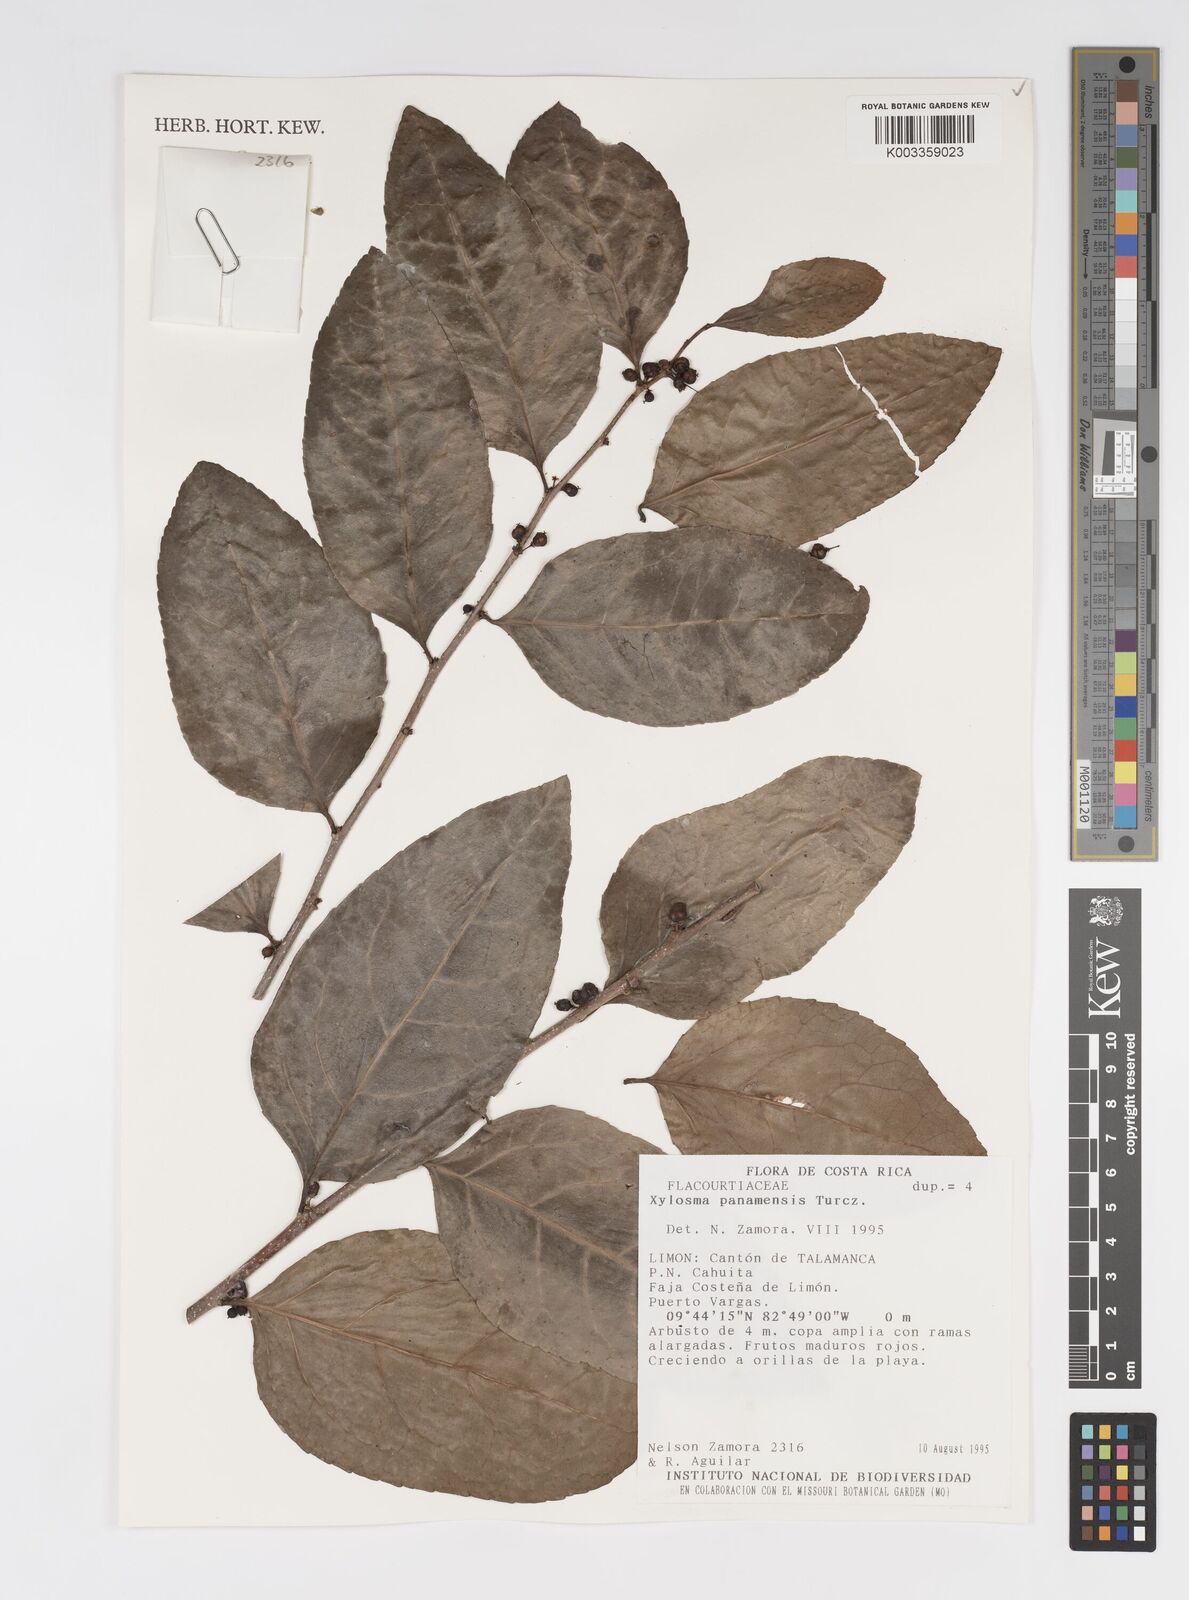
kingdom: Plantae
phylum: Tracheophyta
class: Magnoliopsida
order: Malpighiales
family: Salicaceae
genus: Xylosma
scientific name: Xylosma panamensis
